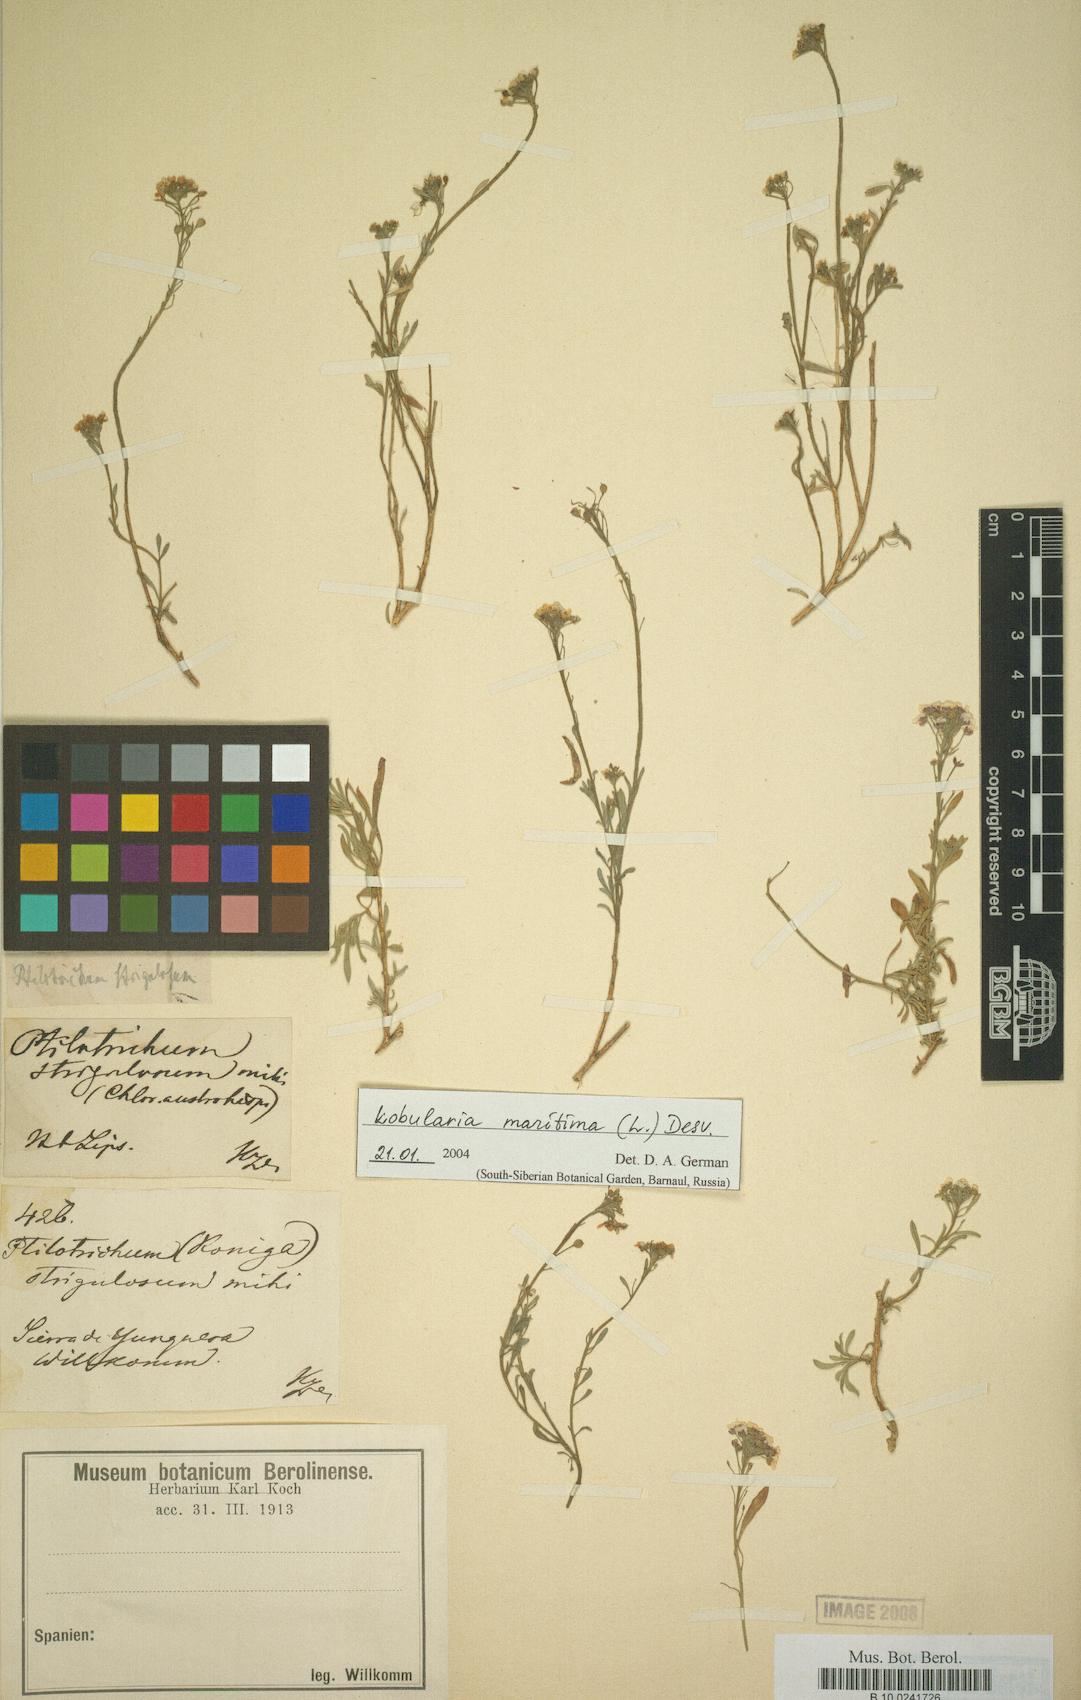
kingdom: Plantae
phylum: Tracheophyta
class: Magnoliopsida
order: Brassicales
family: Brassicaceae
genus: Lobularia
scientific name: Lobularia maritima
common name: Sweet alison
